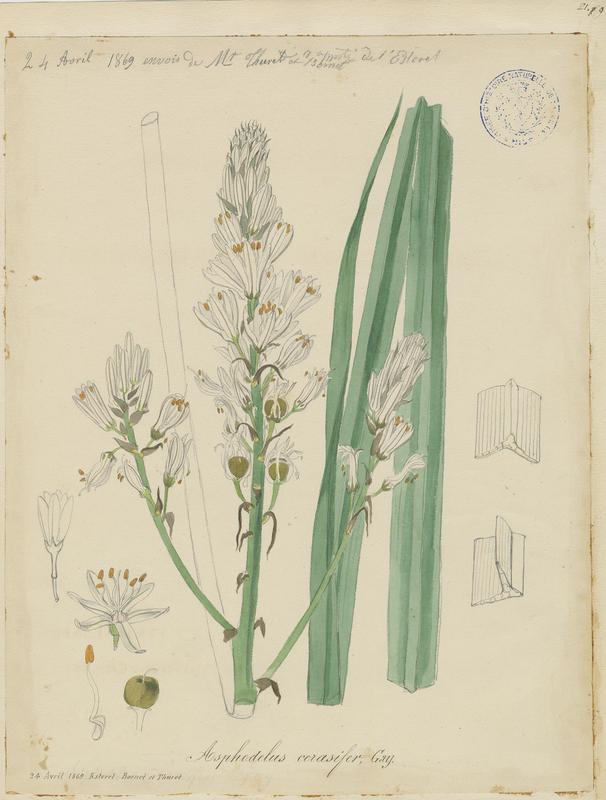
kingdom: Plantae
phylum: Tracheophyta
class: Liliopsida
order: Asparagales
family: Asphodelaceae
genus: Asphodelus
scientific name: Asphodelus cerasifer
